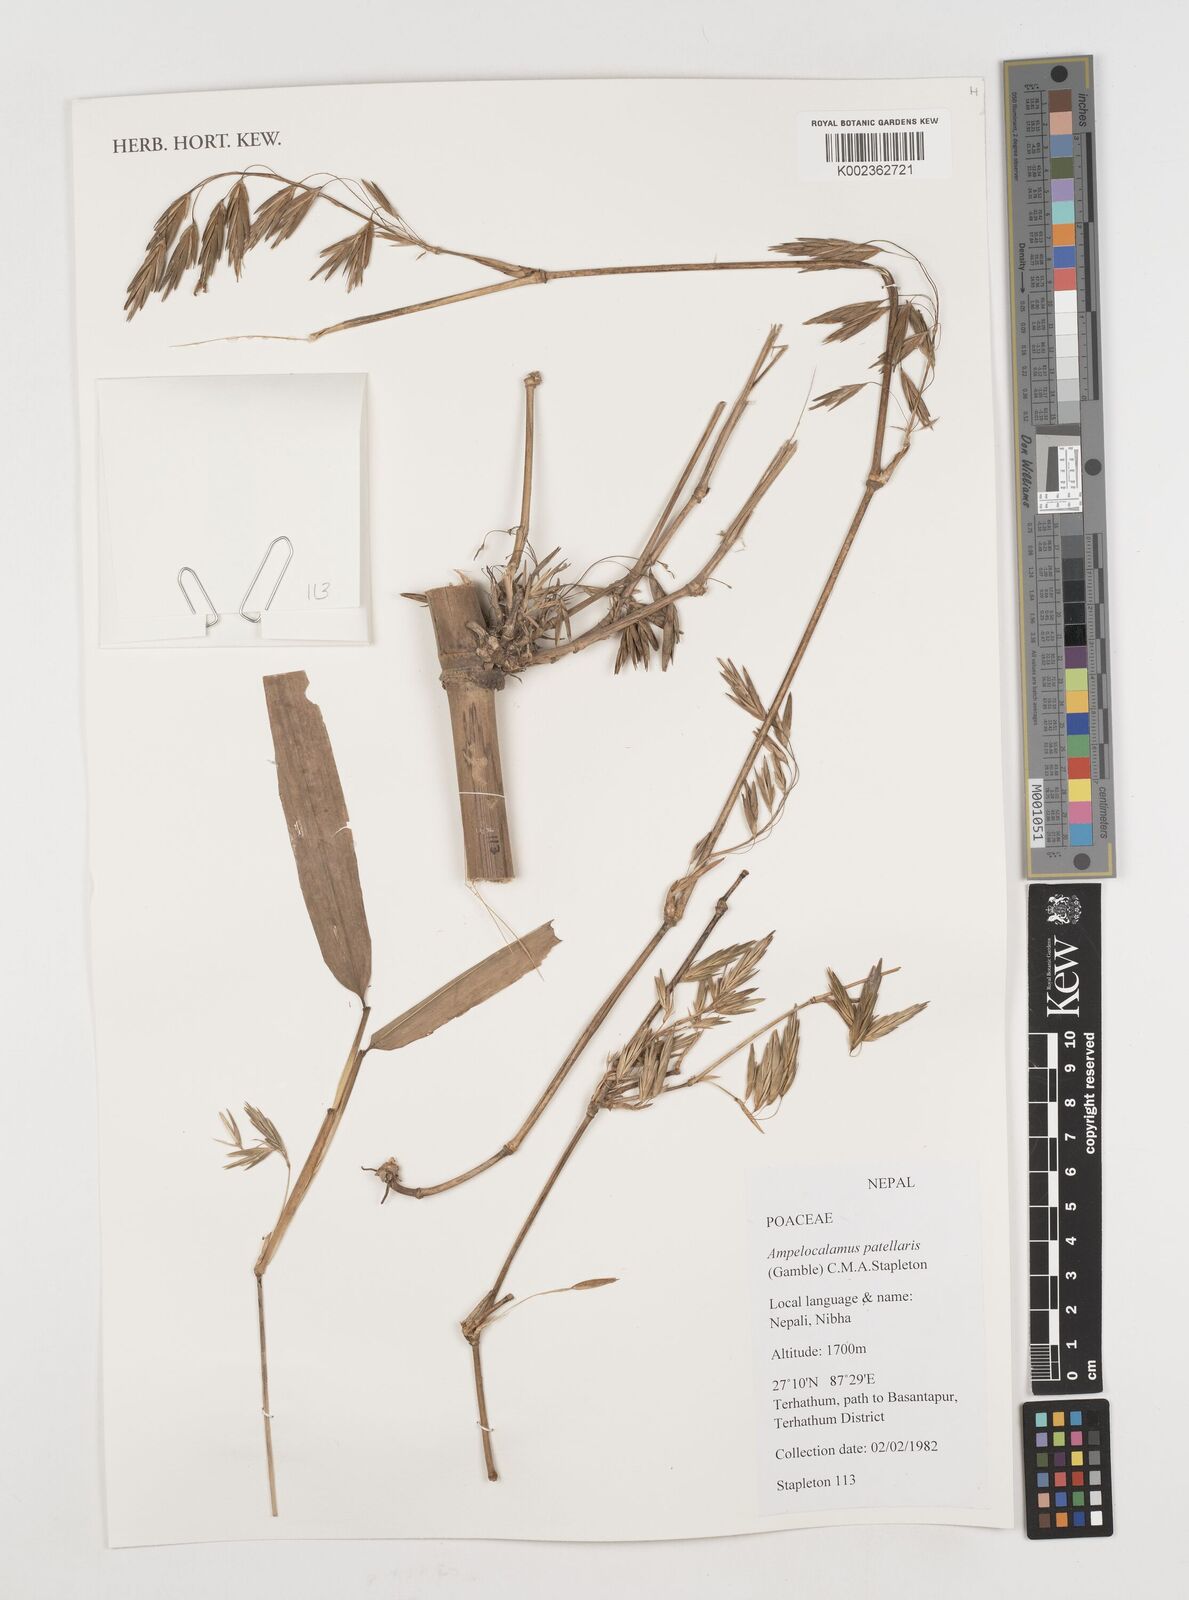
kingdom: Plantae
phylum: Tracheophyta
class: Liliopsida
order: Poales
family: Poaceae
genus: Ampelocalamus
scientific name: Ampelocalamus patellaris
